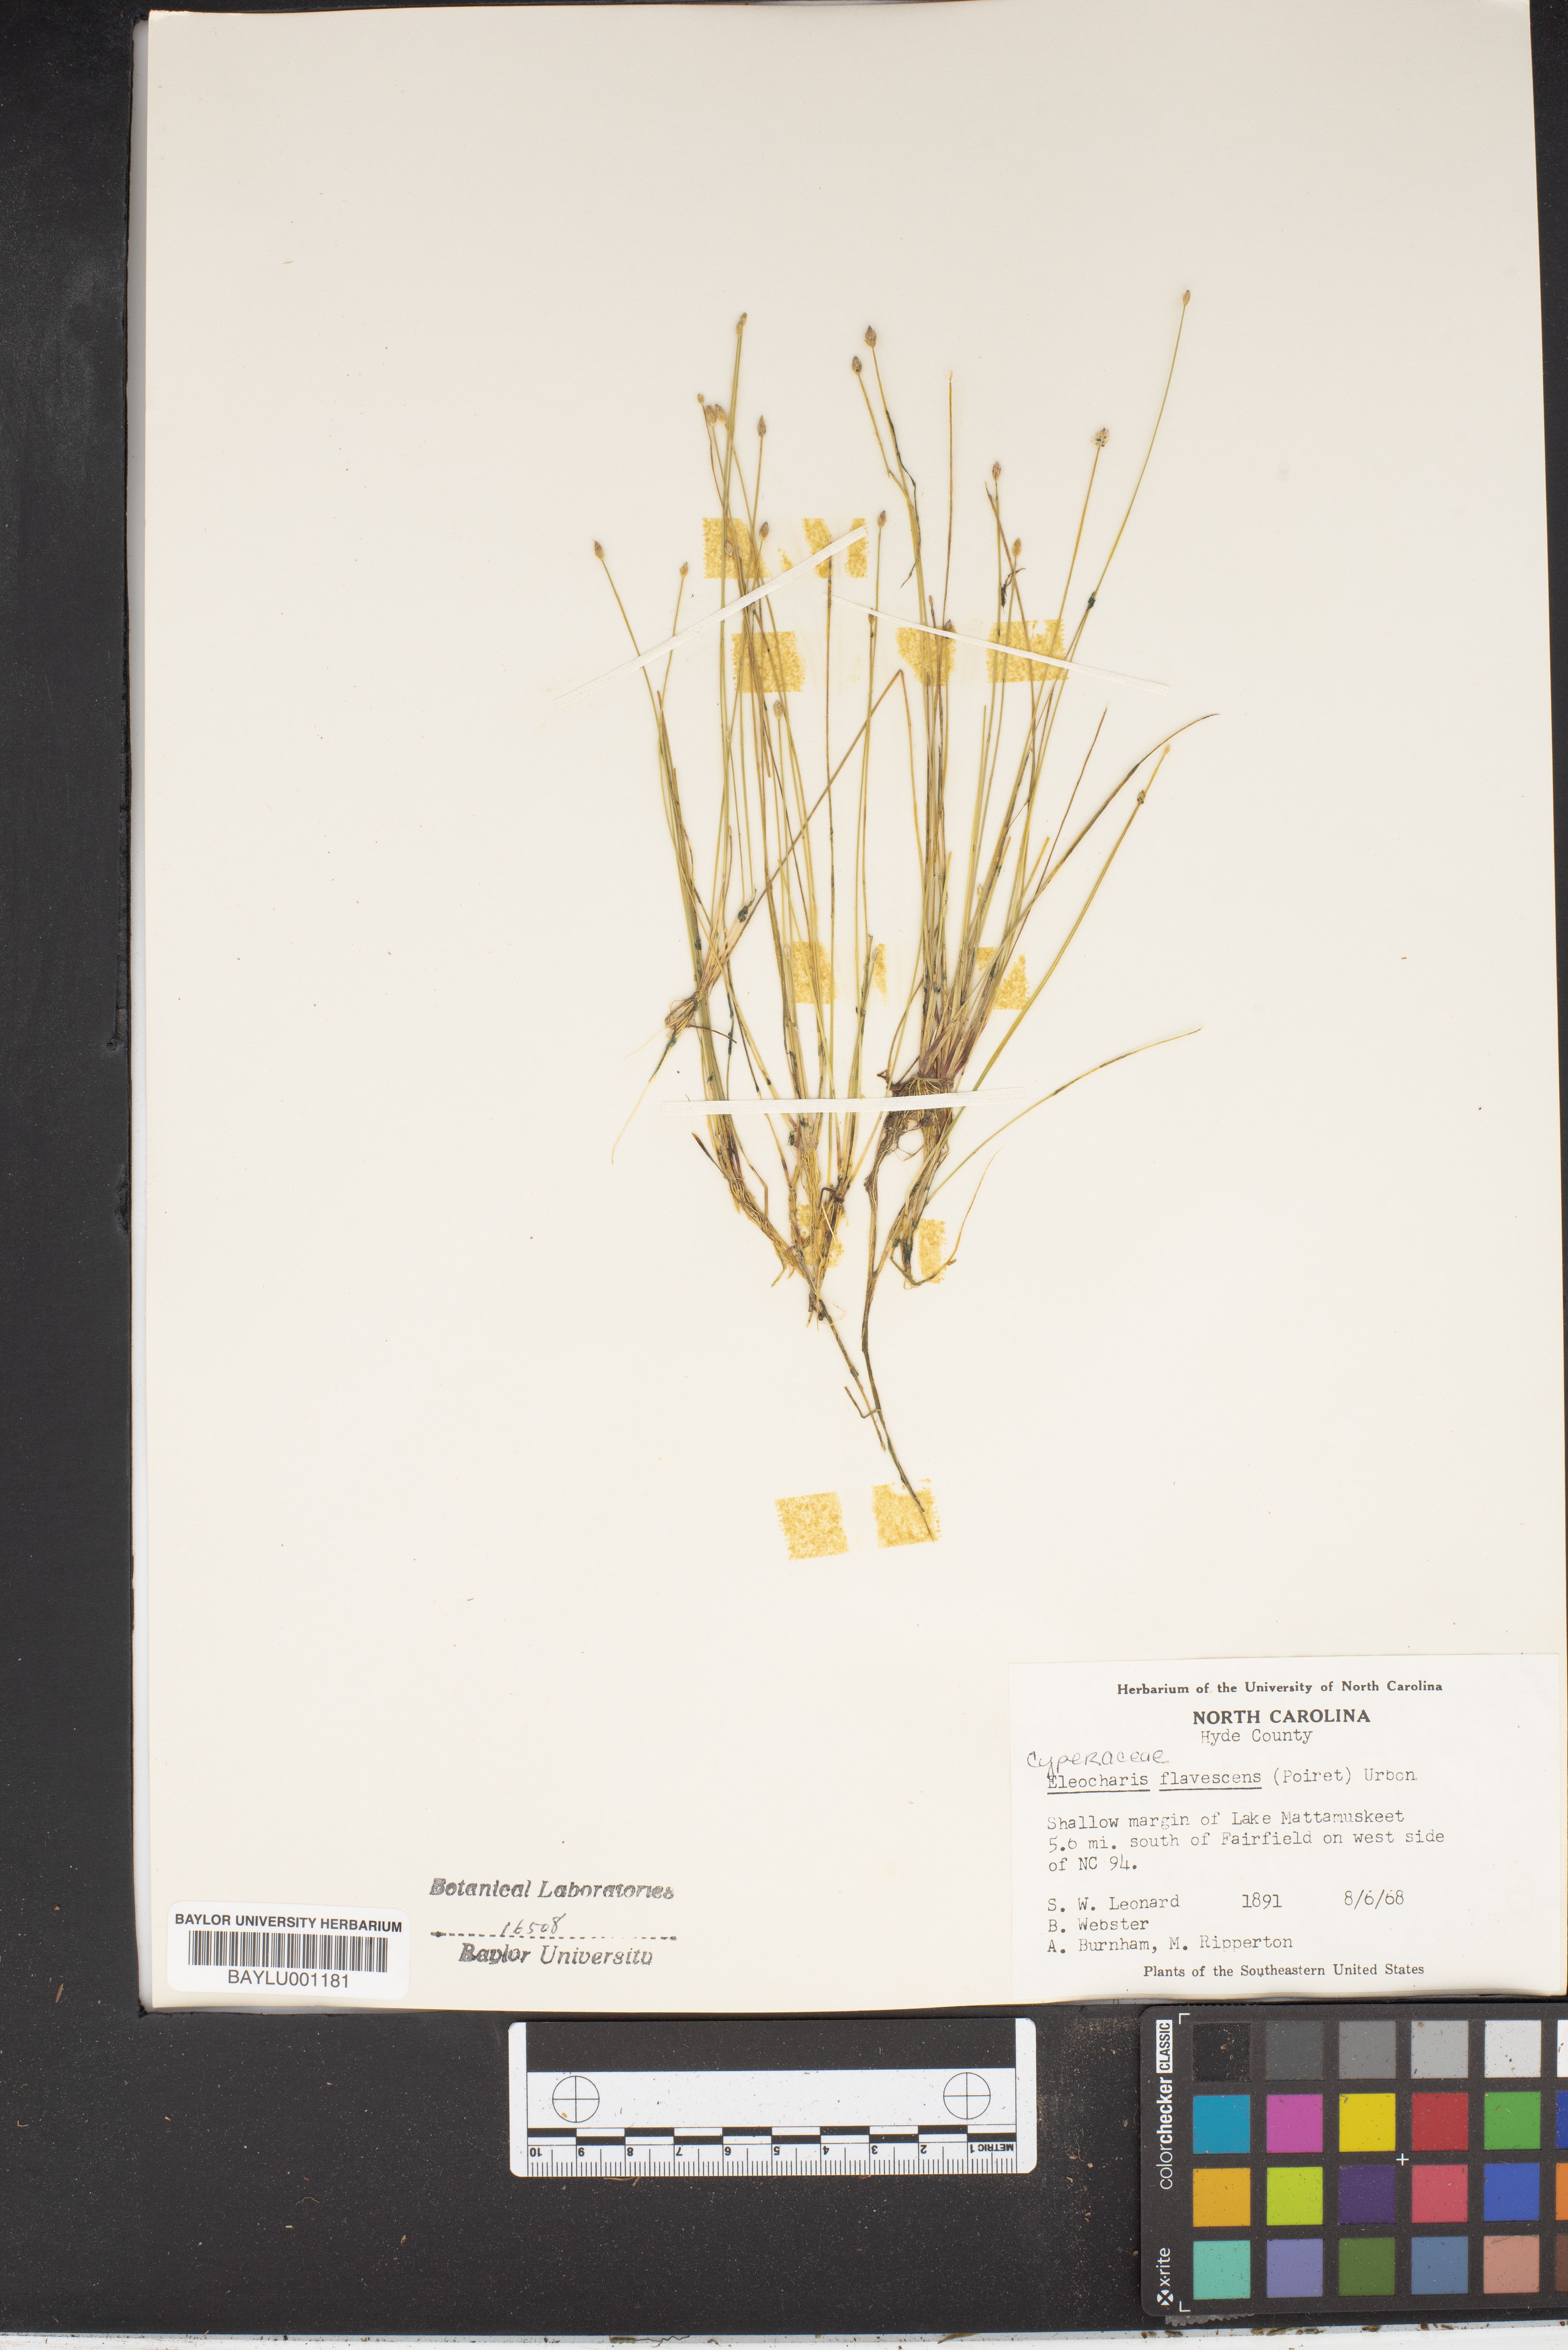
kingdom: Plantae
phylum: Tracheophyta
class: Liliopsida
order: Poales
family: Cyperaceae
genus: Eleocharis
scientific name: Eleocharis flavescens
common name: Yellow spikerush
